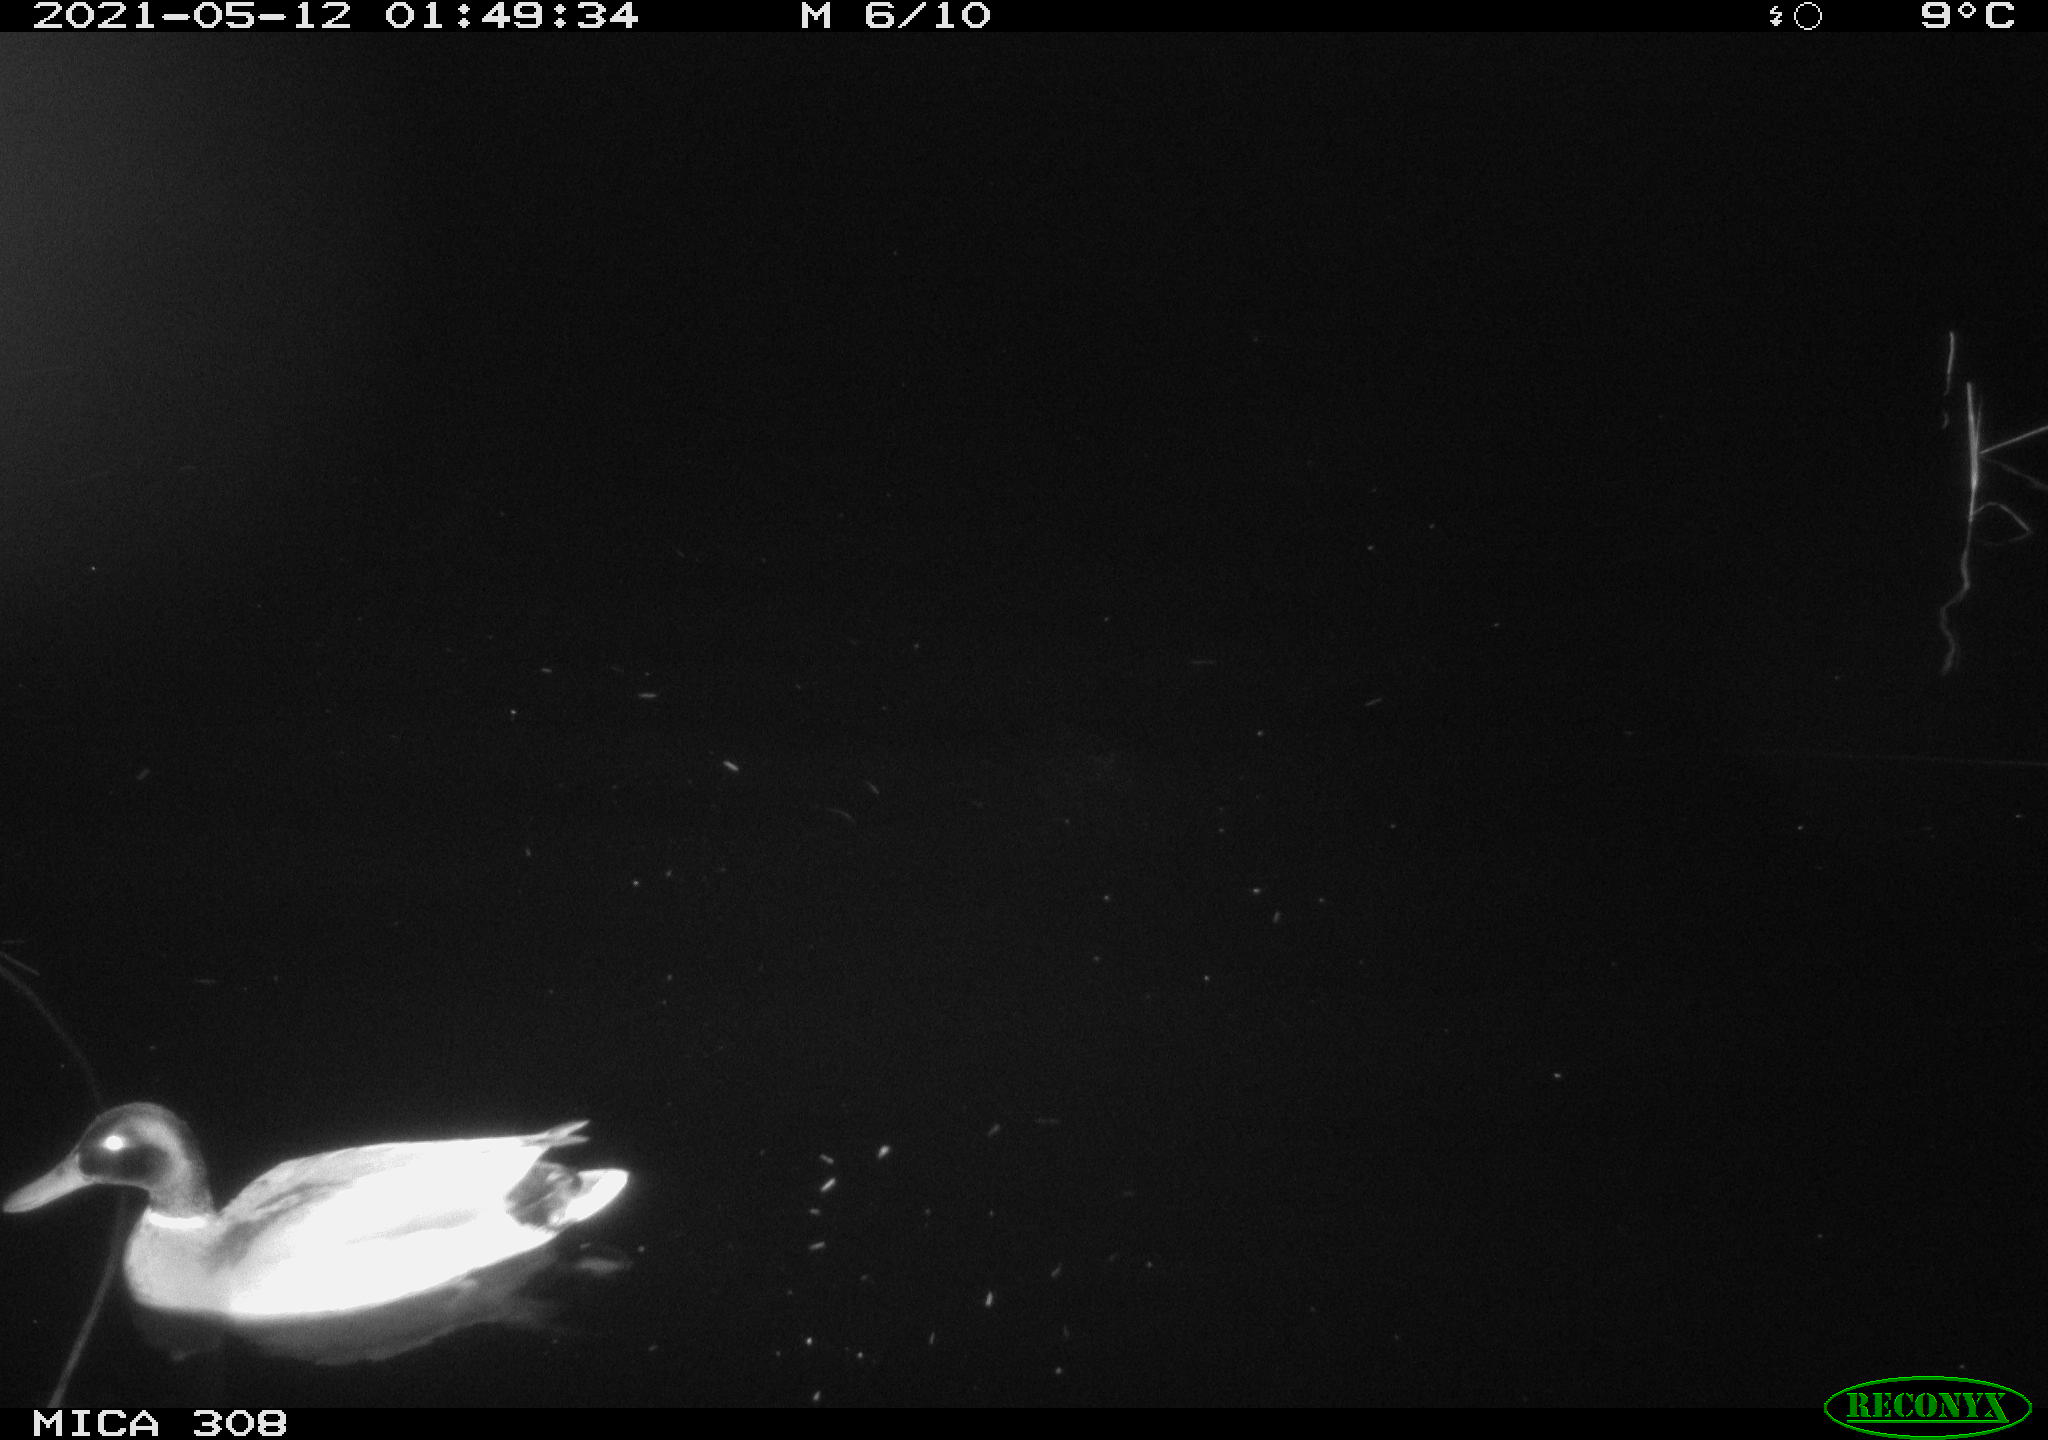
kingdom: Animalia
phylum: Chordata
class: Aves
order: Anseriformes
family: Anatidae
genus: Anas
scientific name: Anas platyrhynchos
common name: Mallard
